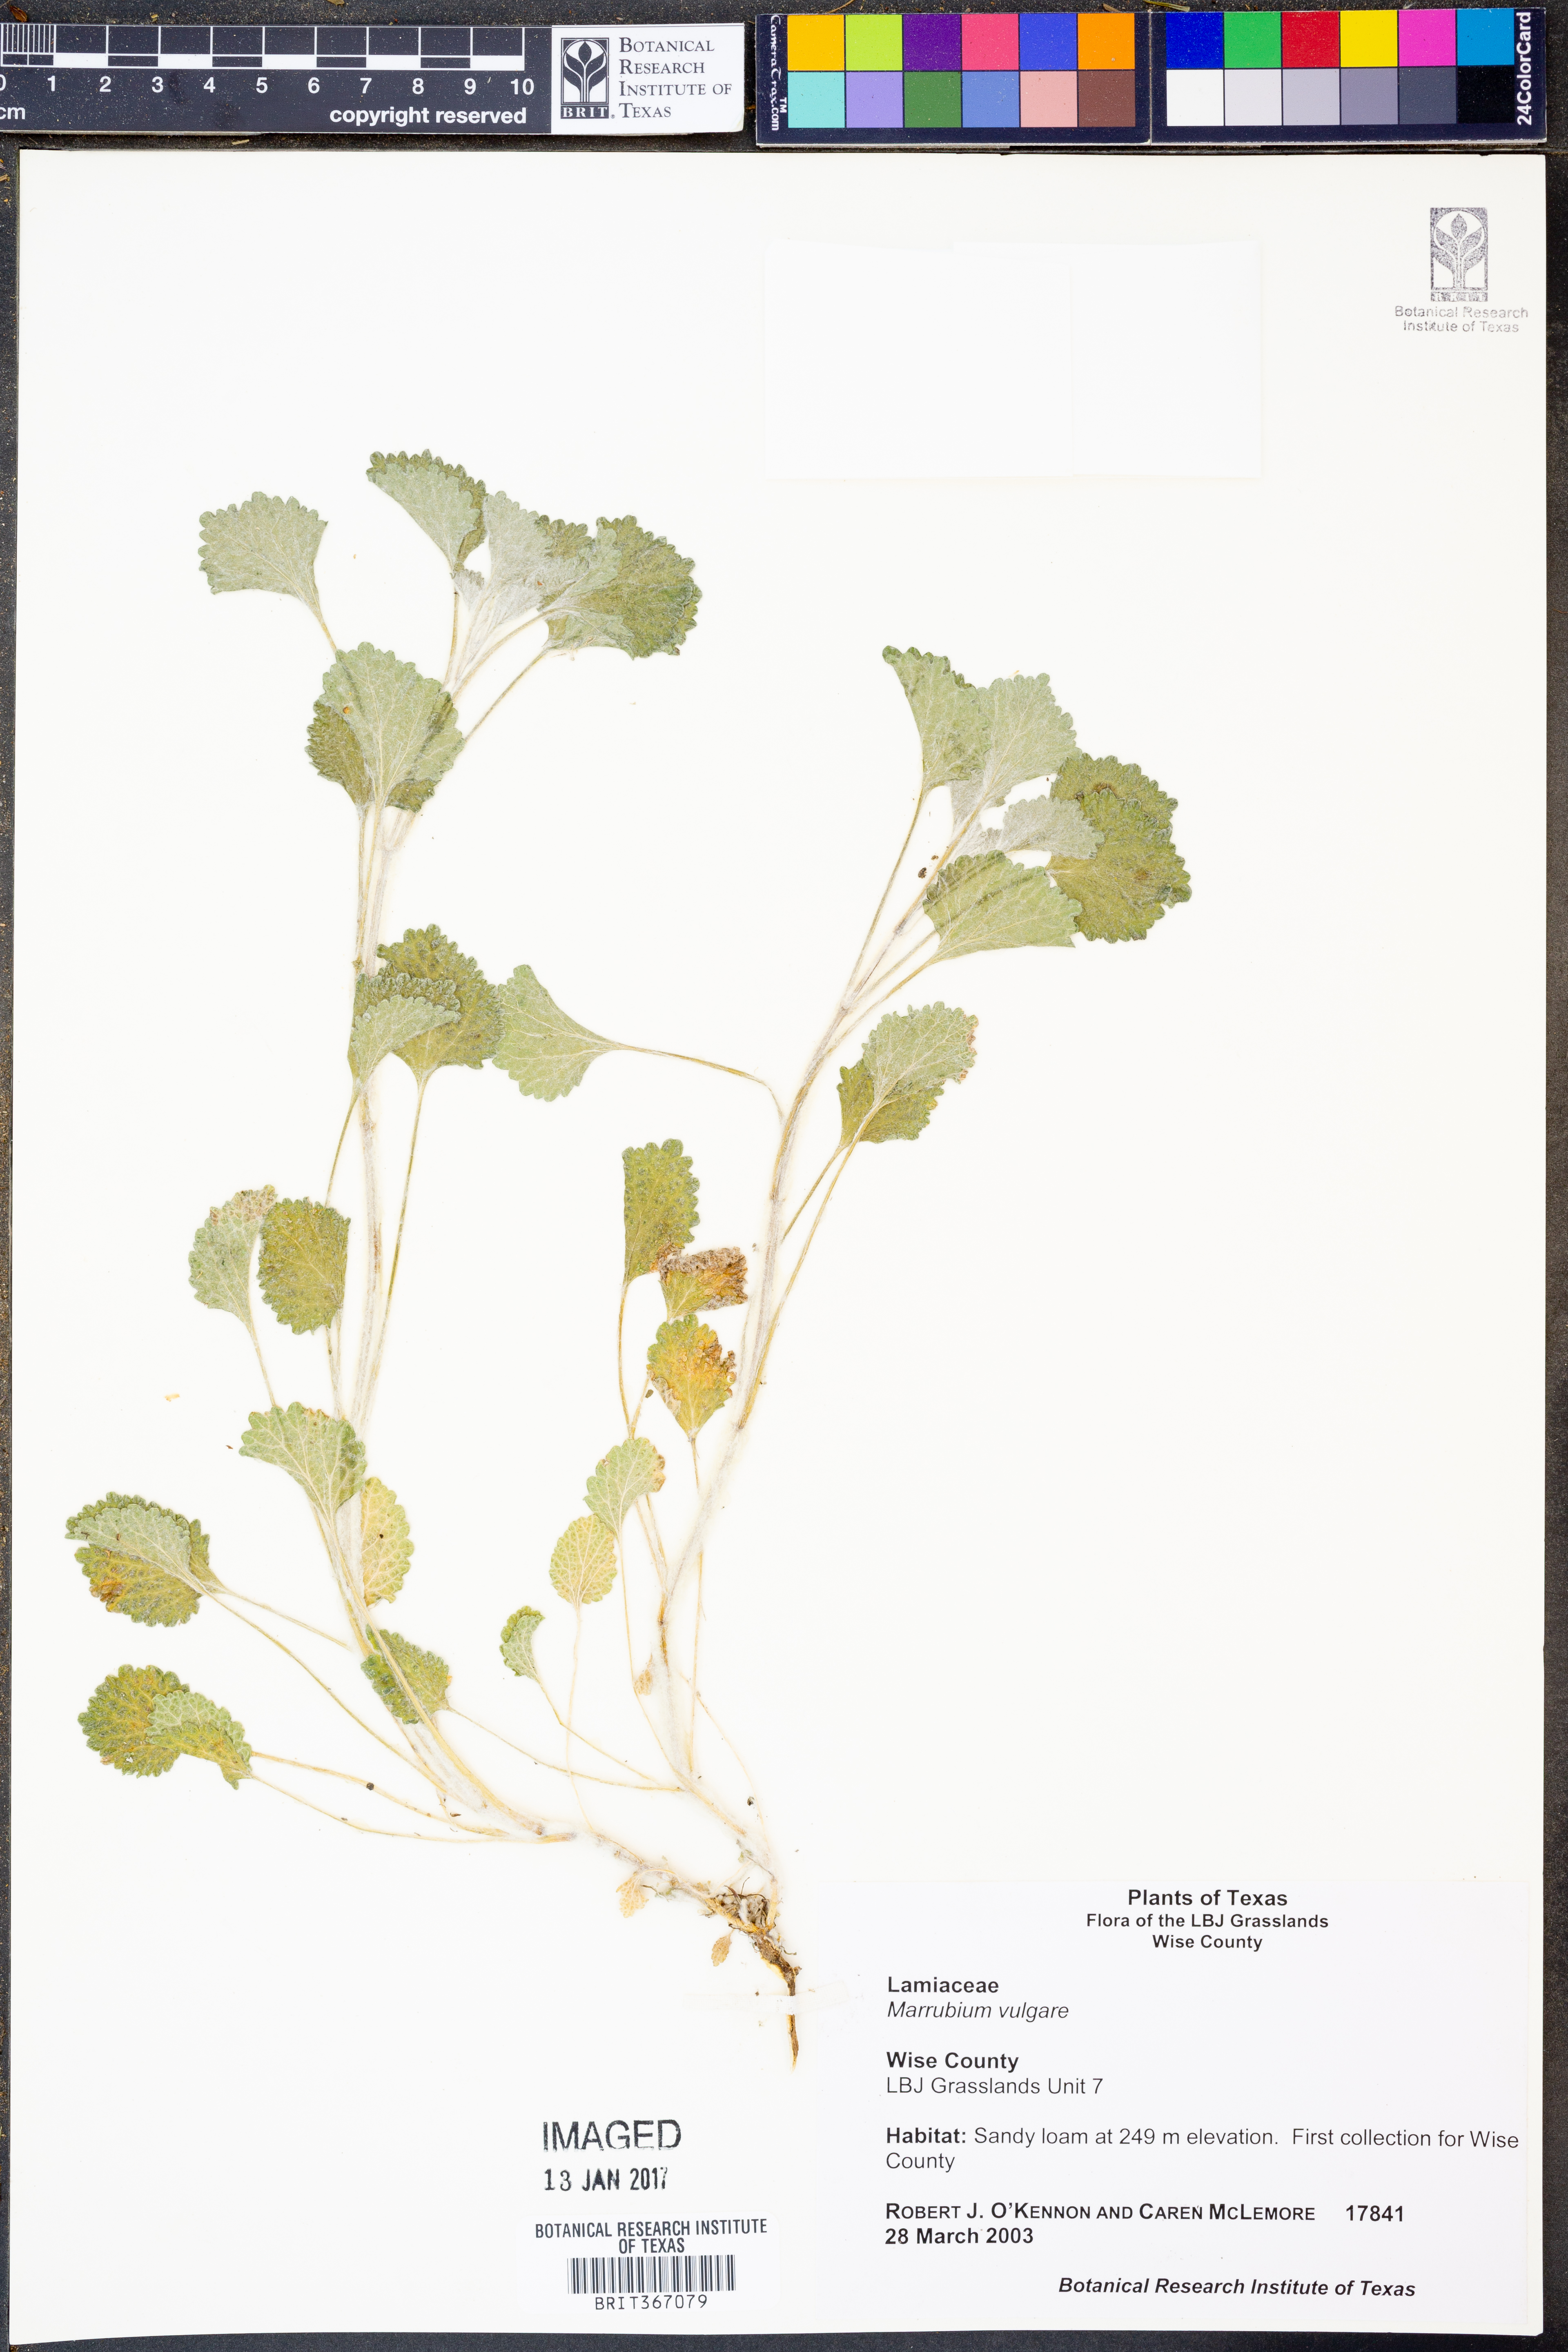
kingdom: Plantae
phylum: Tracheophyta
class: Magnoliopsida
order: Lamiales
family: Lamiaceae
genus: Marrubium
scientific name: Marrubium vulgare
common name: Horehound
